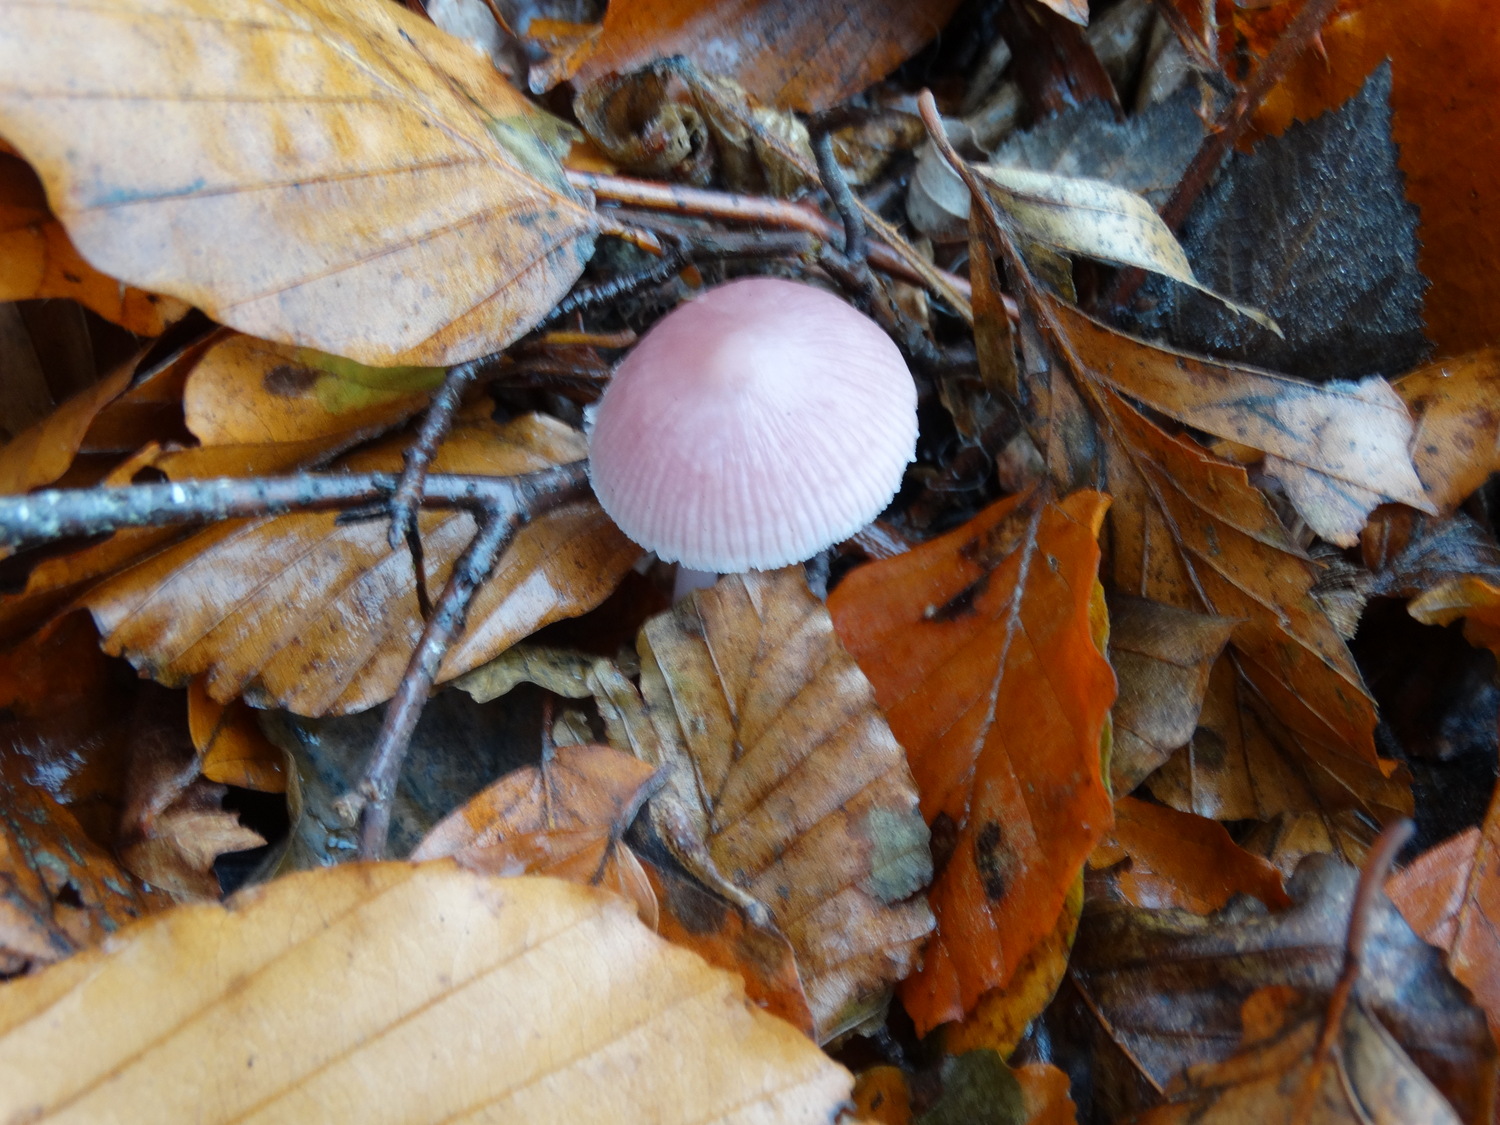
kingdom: Fungi
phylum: Basidiomycota
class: Agaricomycetes
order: Agaricales
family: Mycenaceae
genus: Mycena
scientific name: Mycena rosea
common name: rosa huesvamp
